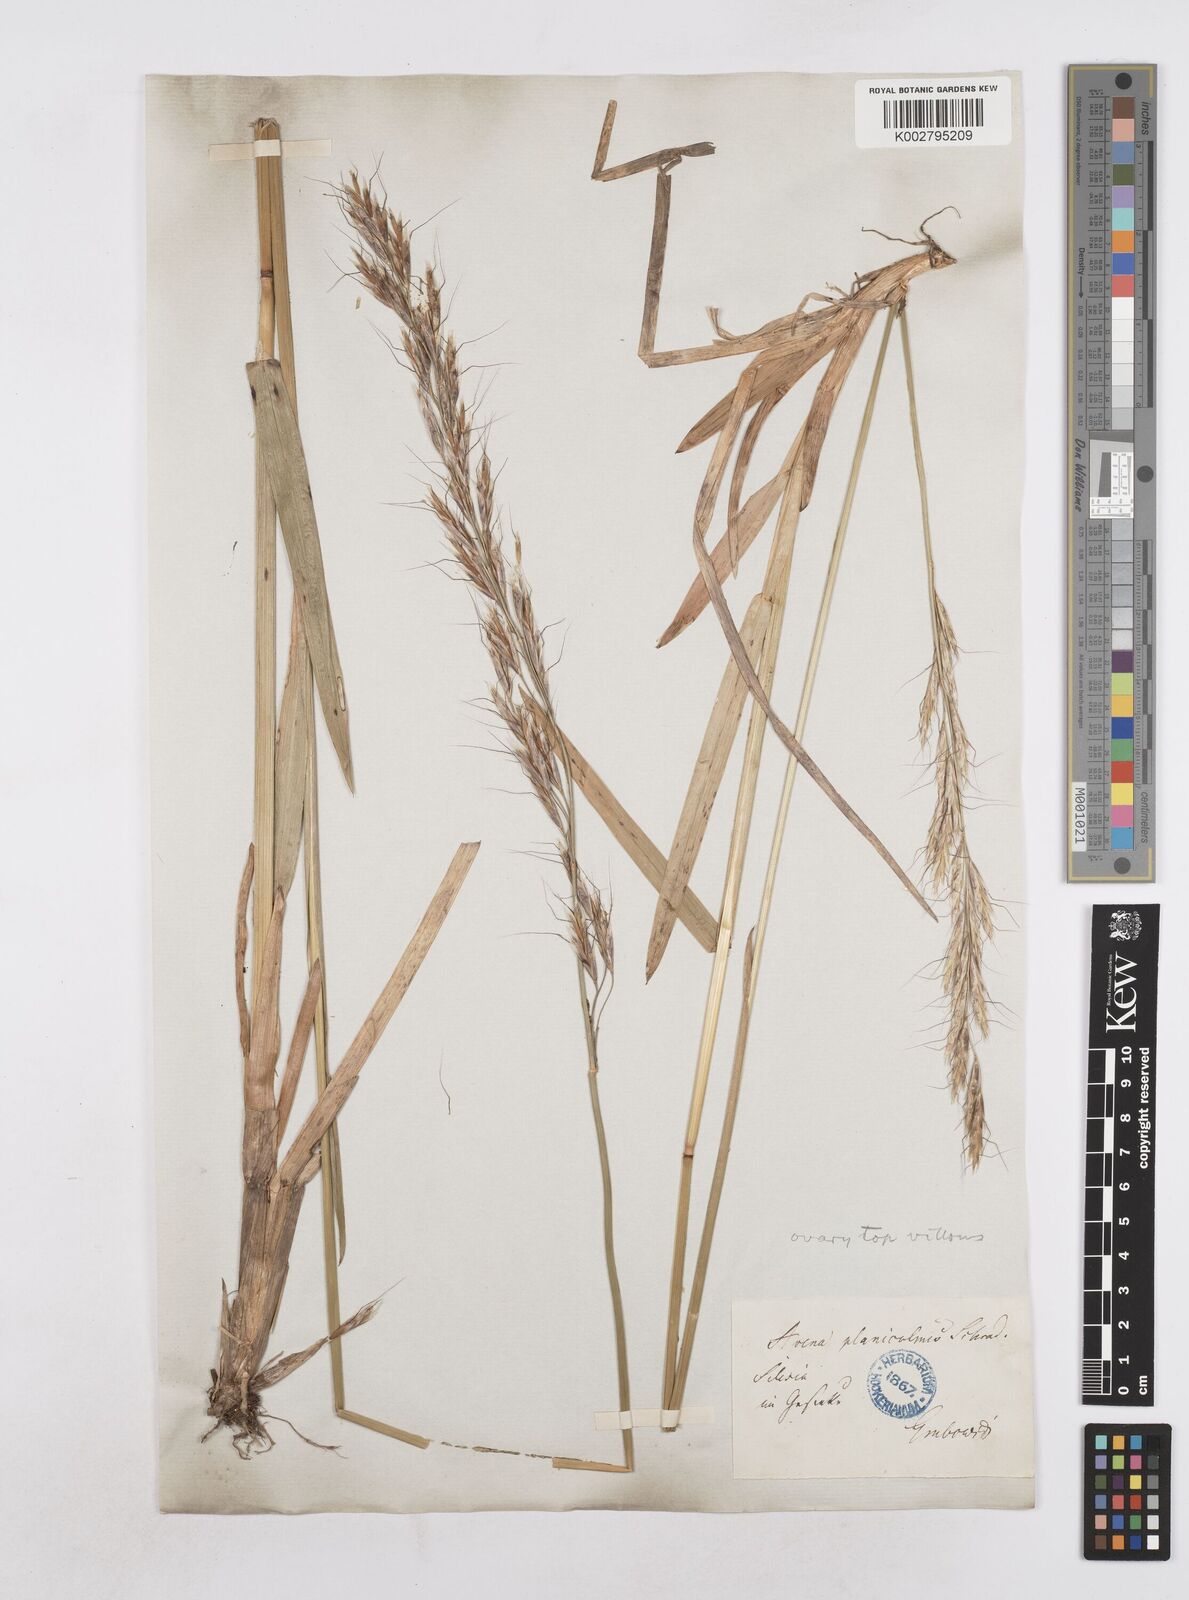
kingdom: Plantae
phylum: Tracheophyta
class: Liliopsida
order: Poales
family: Poaceae
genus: Helictochloa
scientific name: Helictochloa planiculmis
